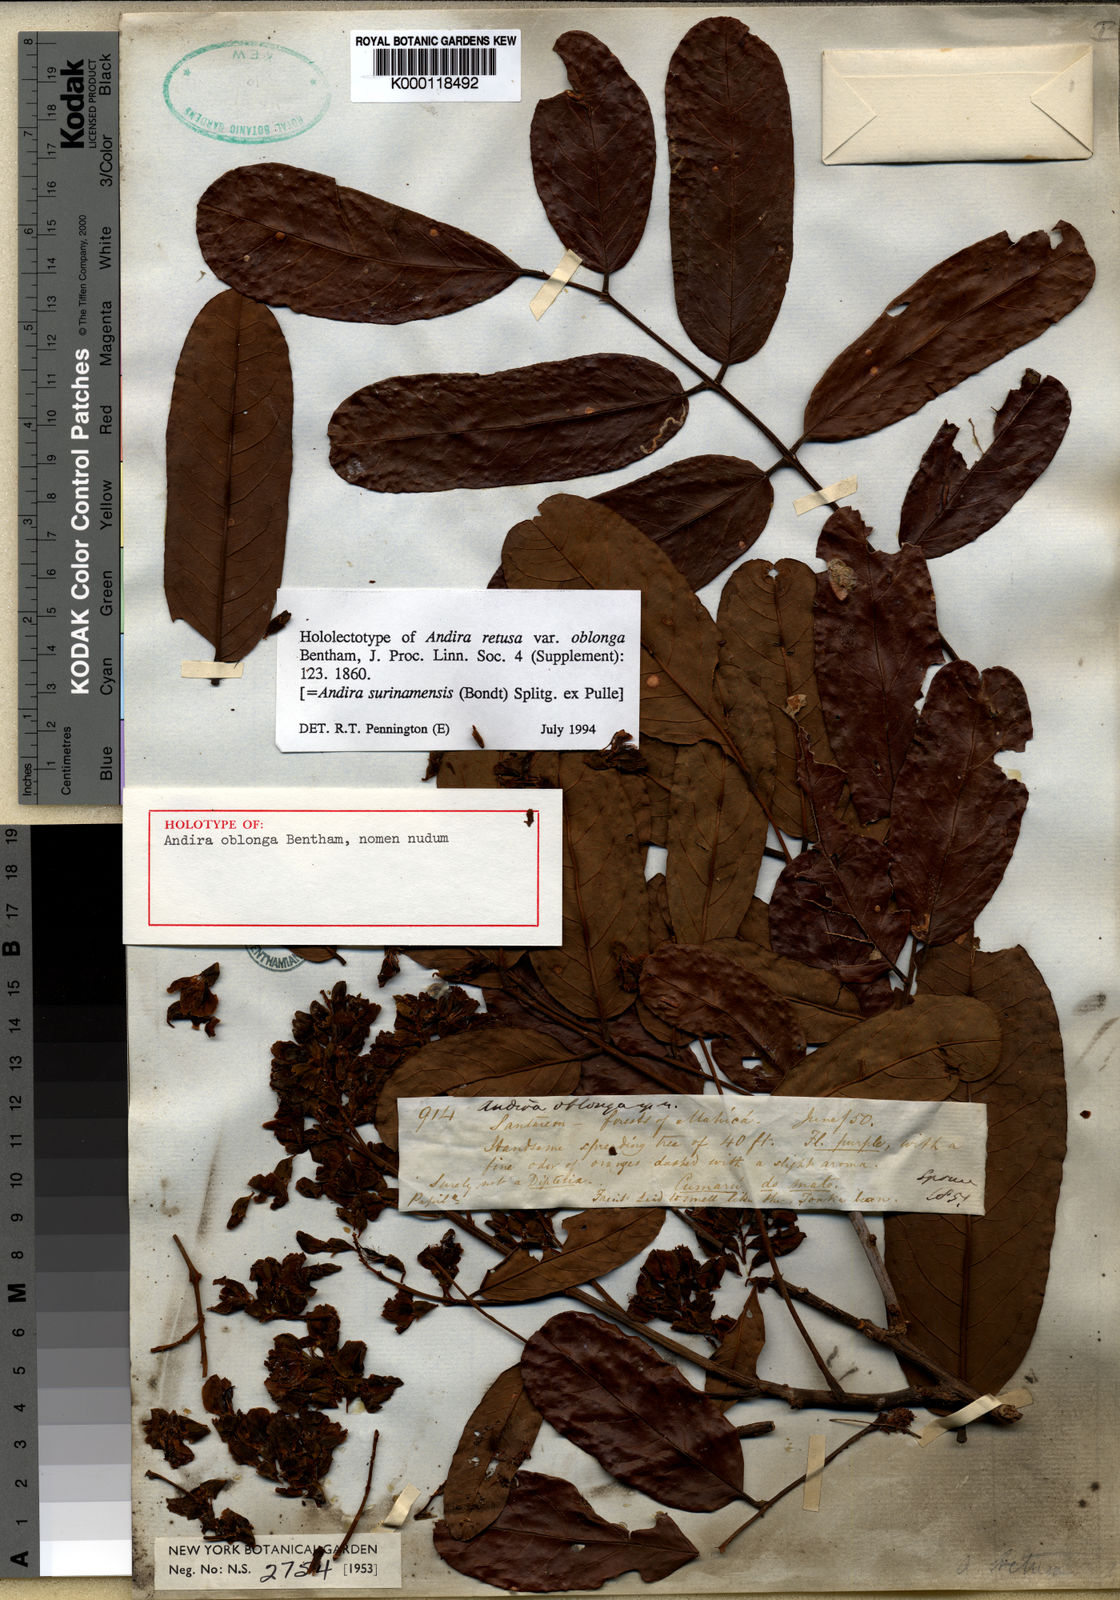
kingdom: Plantae
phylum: Tracheophyta
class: Magnoliopsida
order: Fabales
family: Fabaceae
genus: Andira
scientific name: Andira
